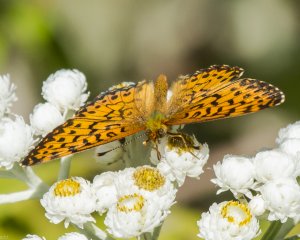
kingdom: Animalia
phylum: Arthropoda
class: Insecta
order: Lepidoptera
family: Nymphalidae
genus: Boloria
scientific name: Boloria chariclea
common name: Arctic Fritillary
